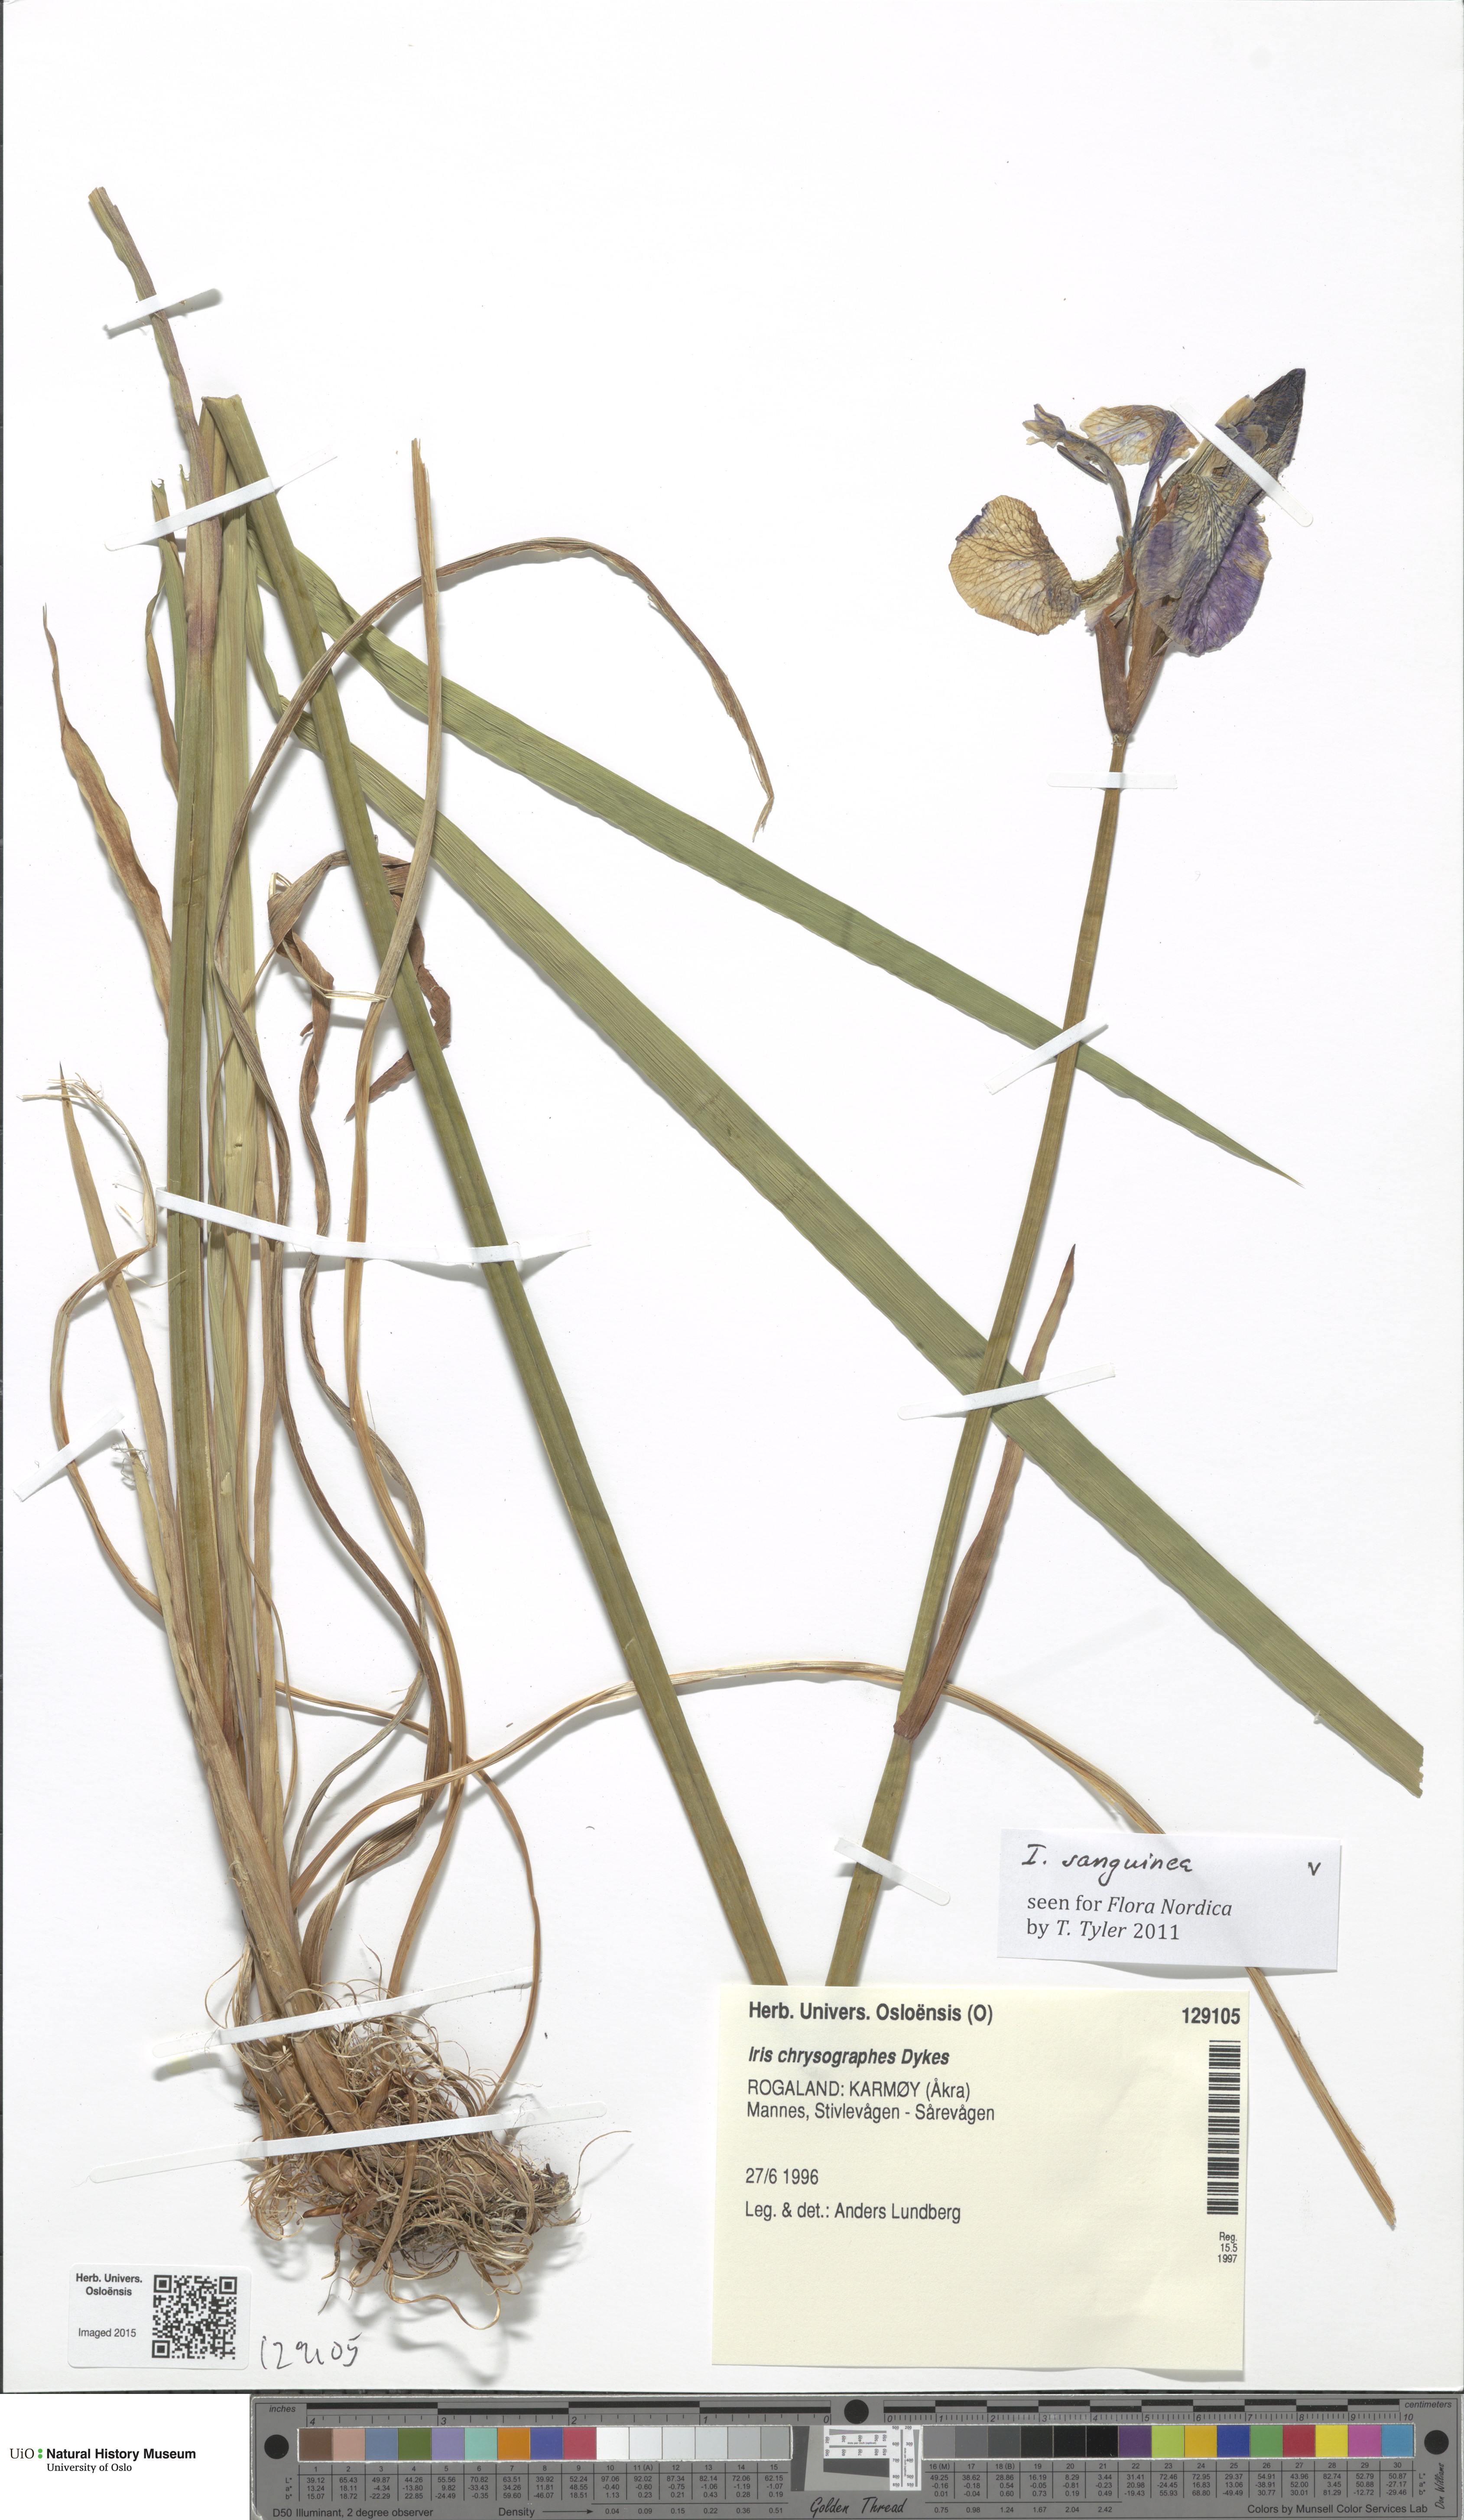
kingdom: Plantae
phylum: Tracheophyta
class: Liliopsida
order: Asparagales
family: Iridaceae
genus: Iris
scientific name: Iris sanguinea
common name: Blood iris
